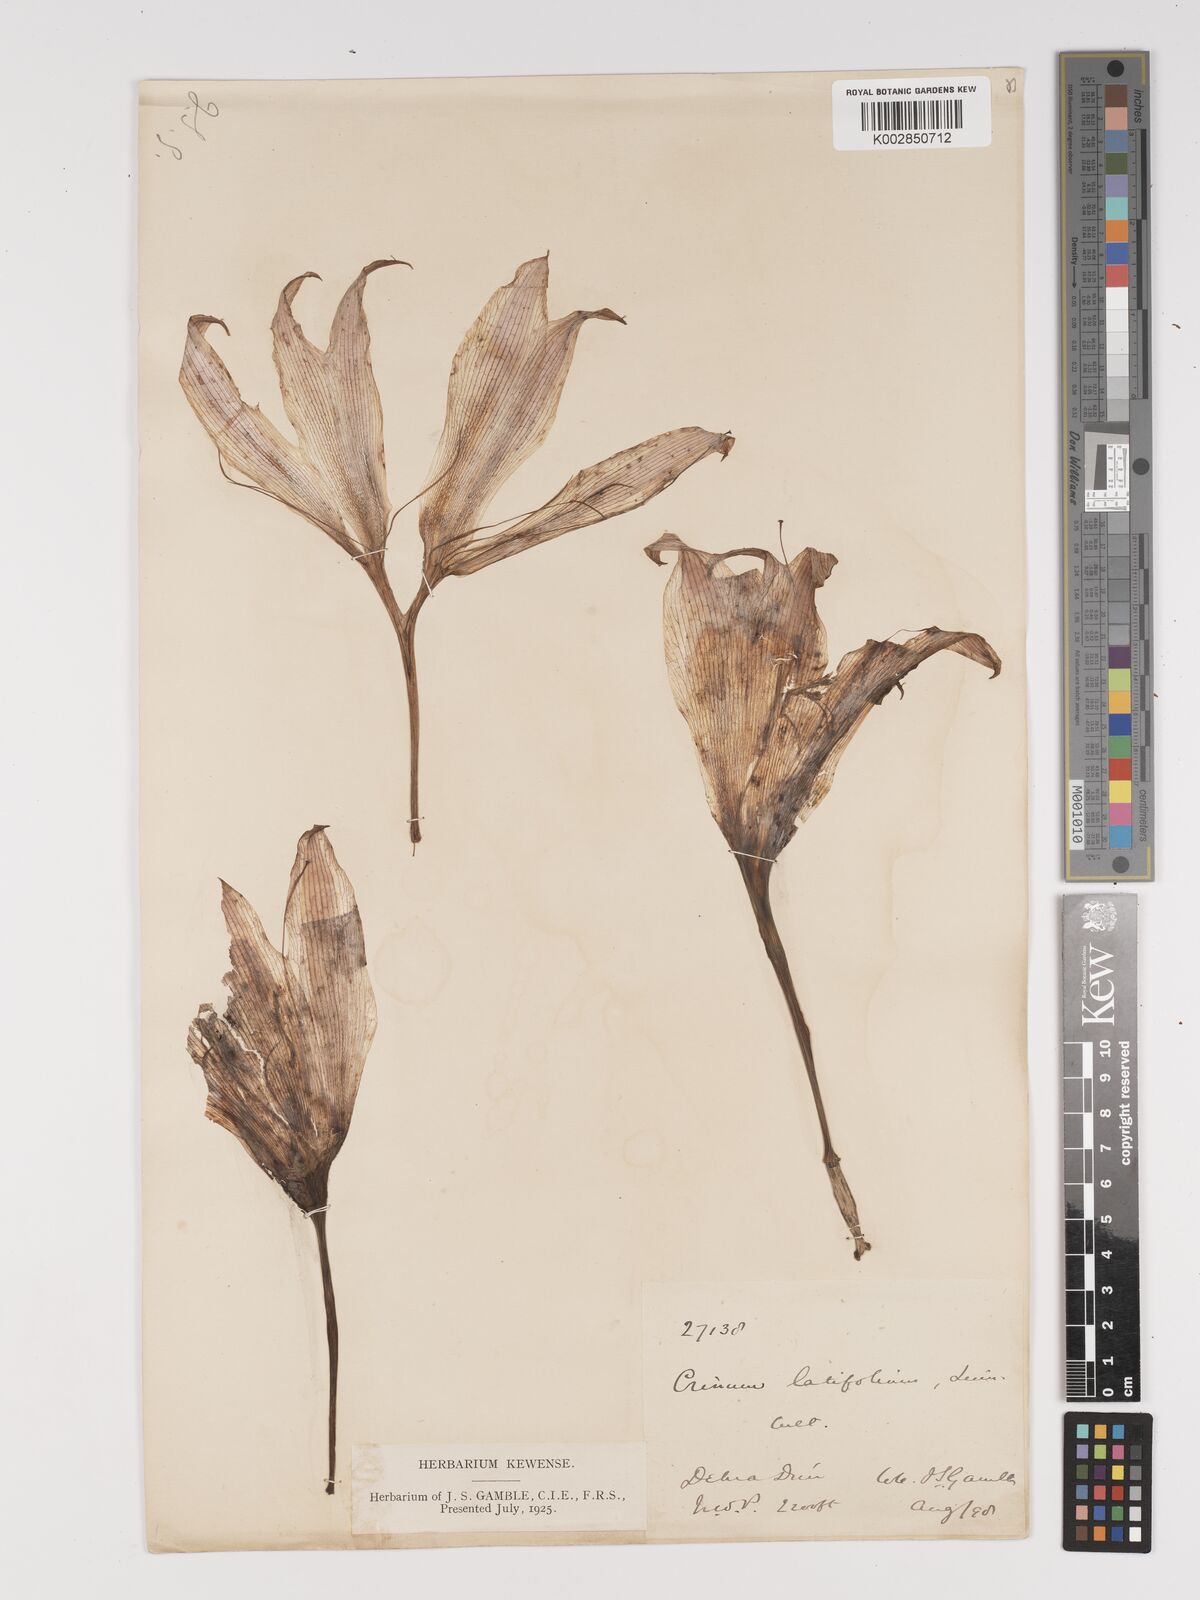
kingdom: Plantae
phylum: Tracheophyta
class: Liliopsida
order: Asparagales
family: Amaryllidaceae
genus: Crinum
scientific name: Crinum latifolium
